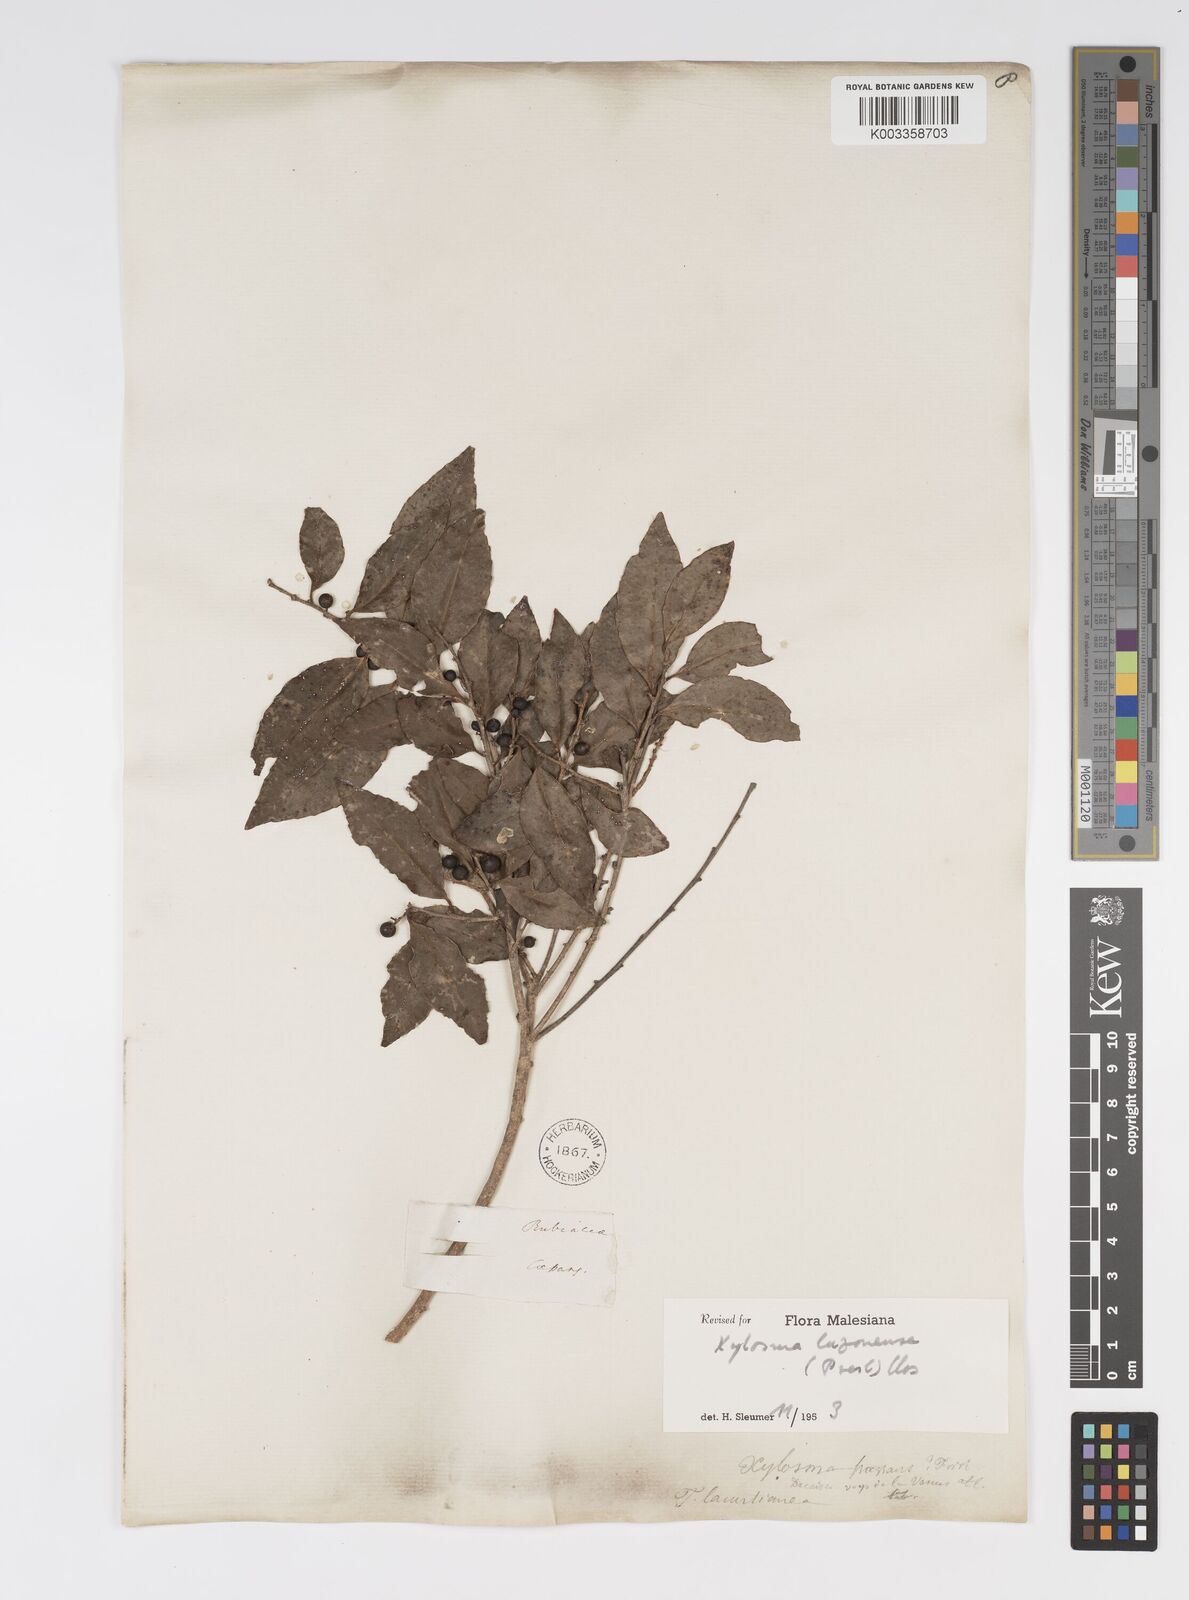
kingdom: Plantae
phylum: Tracheophyta
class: Magnoliopsida
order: Malpighiales
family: Salicaceae
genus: Xylosma
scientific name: Xylosma luzonensis
